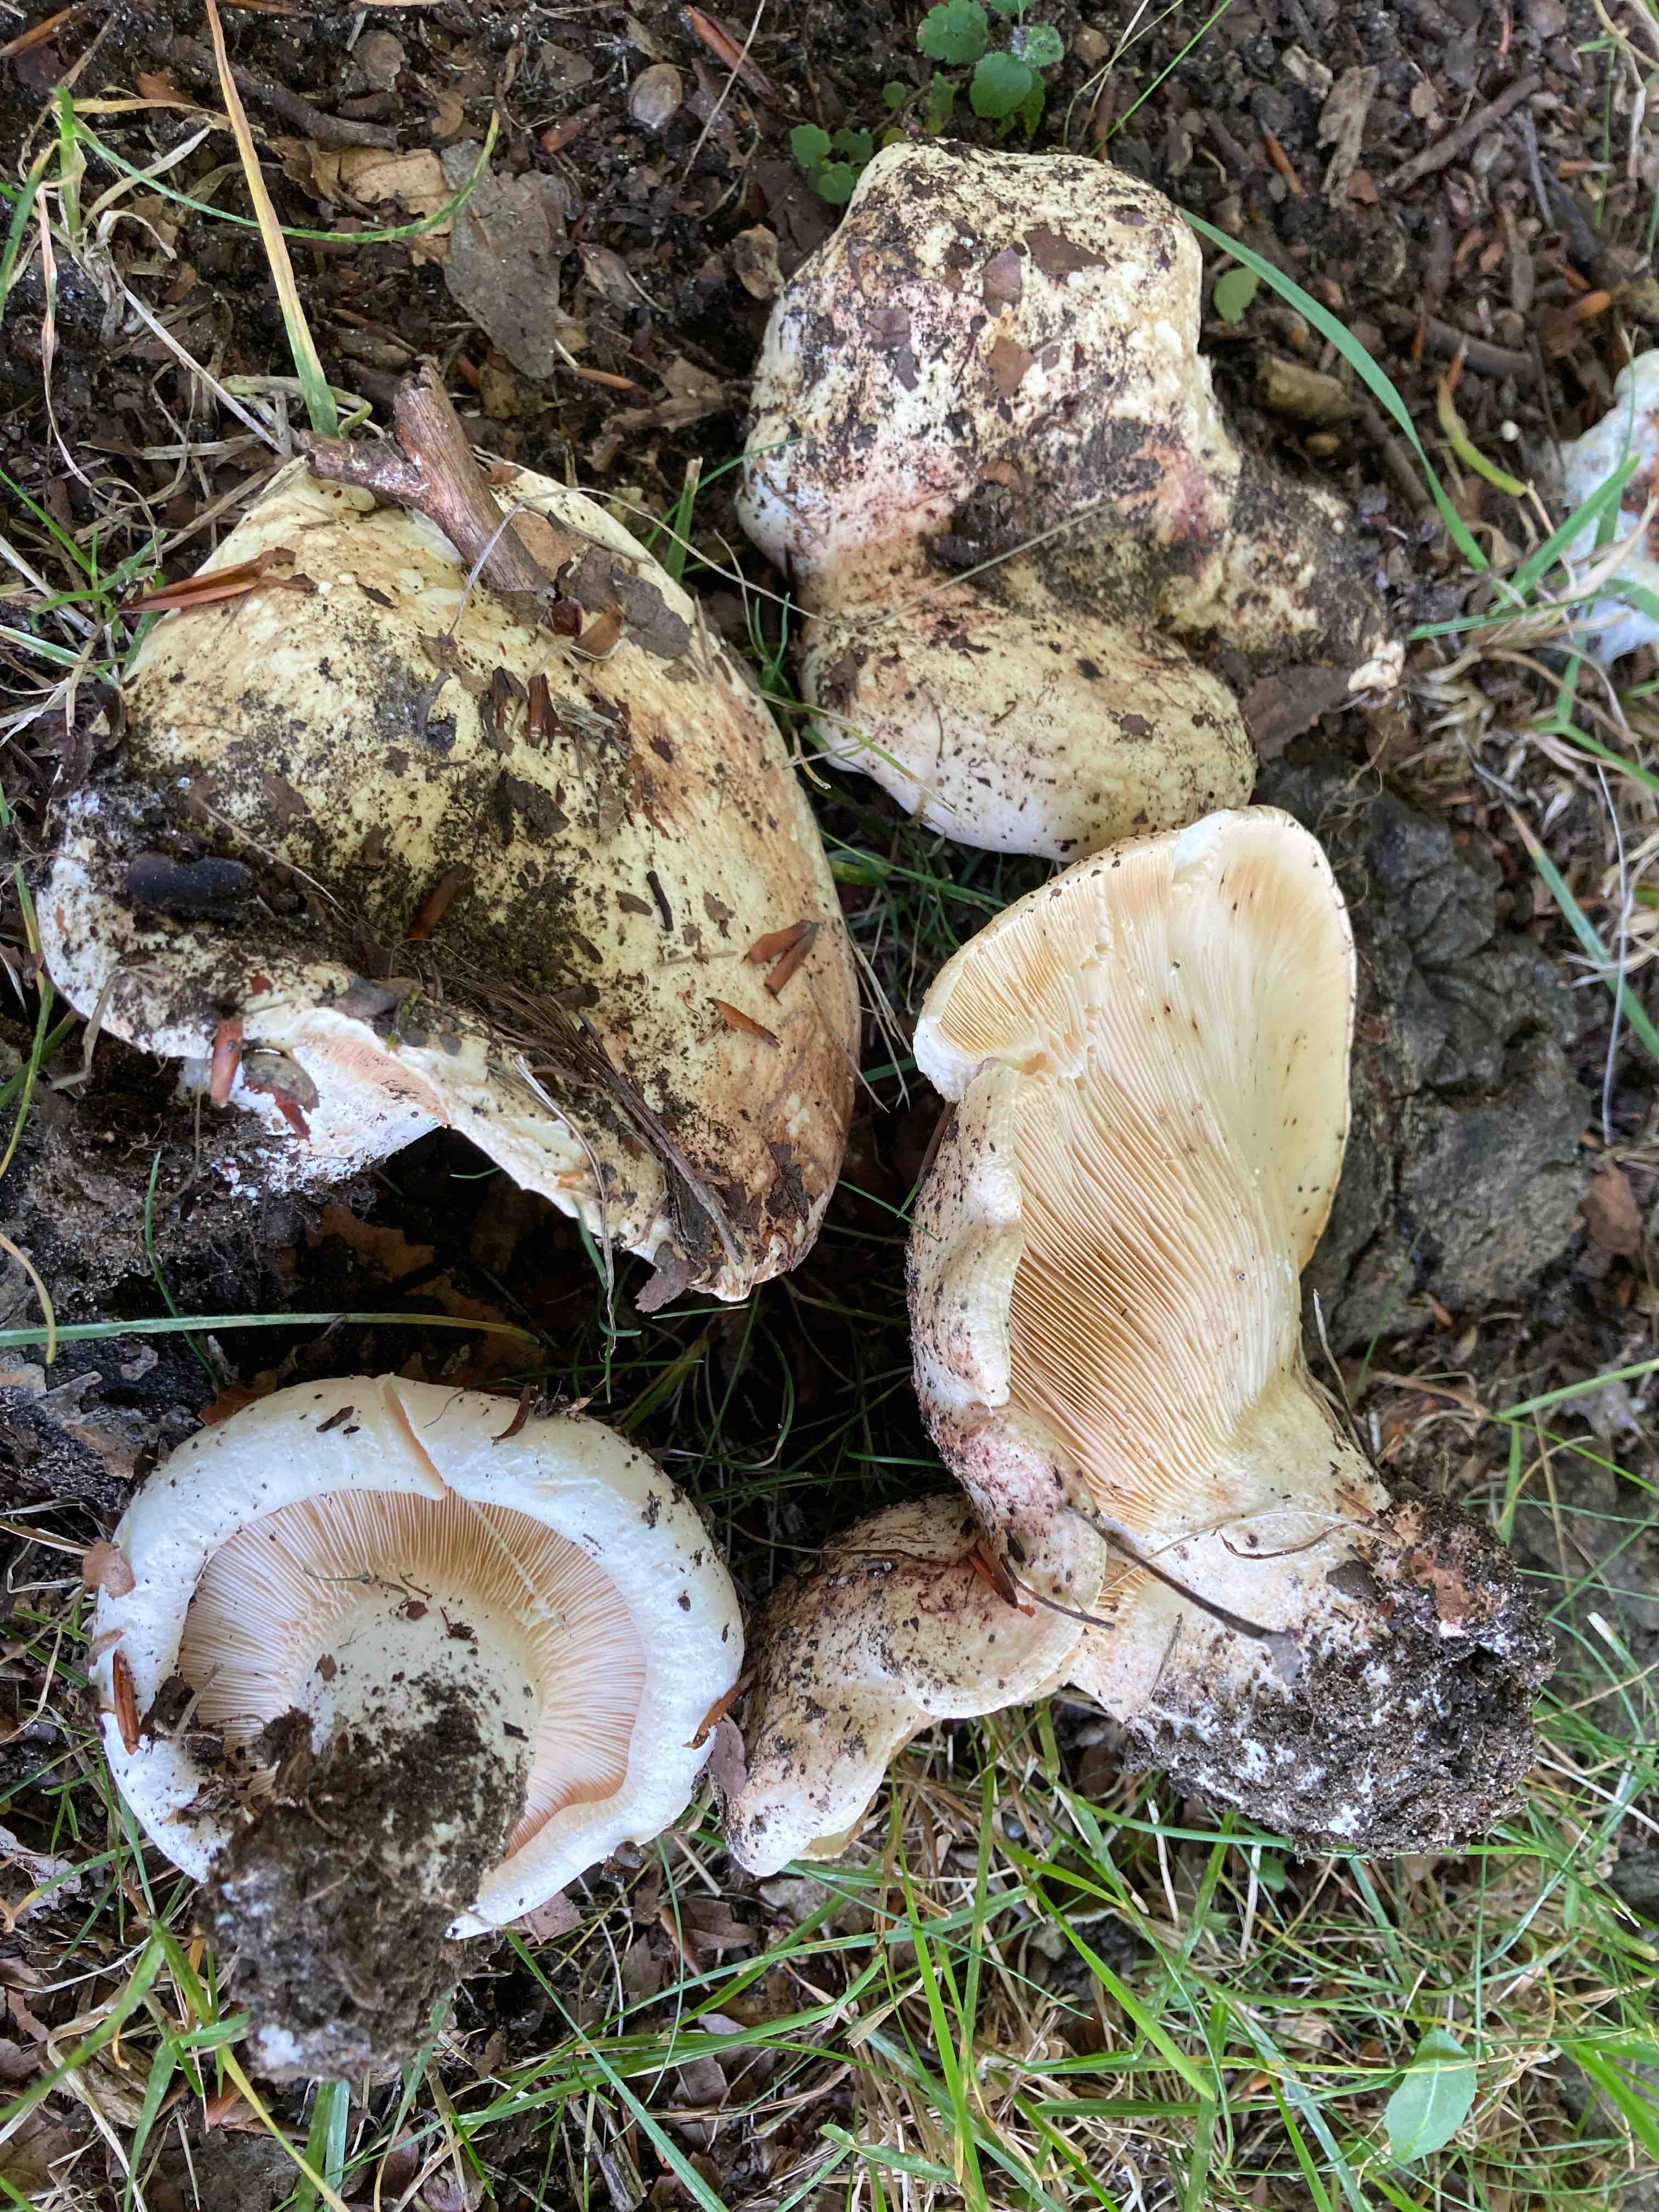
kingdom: Fungi
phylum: Basidiomycota
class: Agaricomycetes
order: Russulales
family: Russulaceae
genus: Lactarius
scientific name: Lactarius controversus
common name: rosabladet mælkehat
